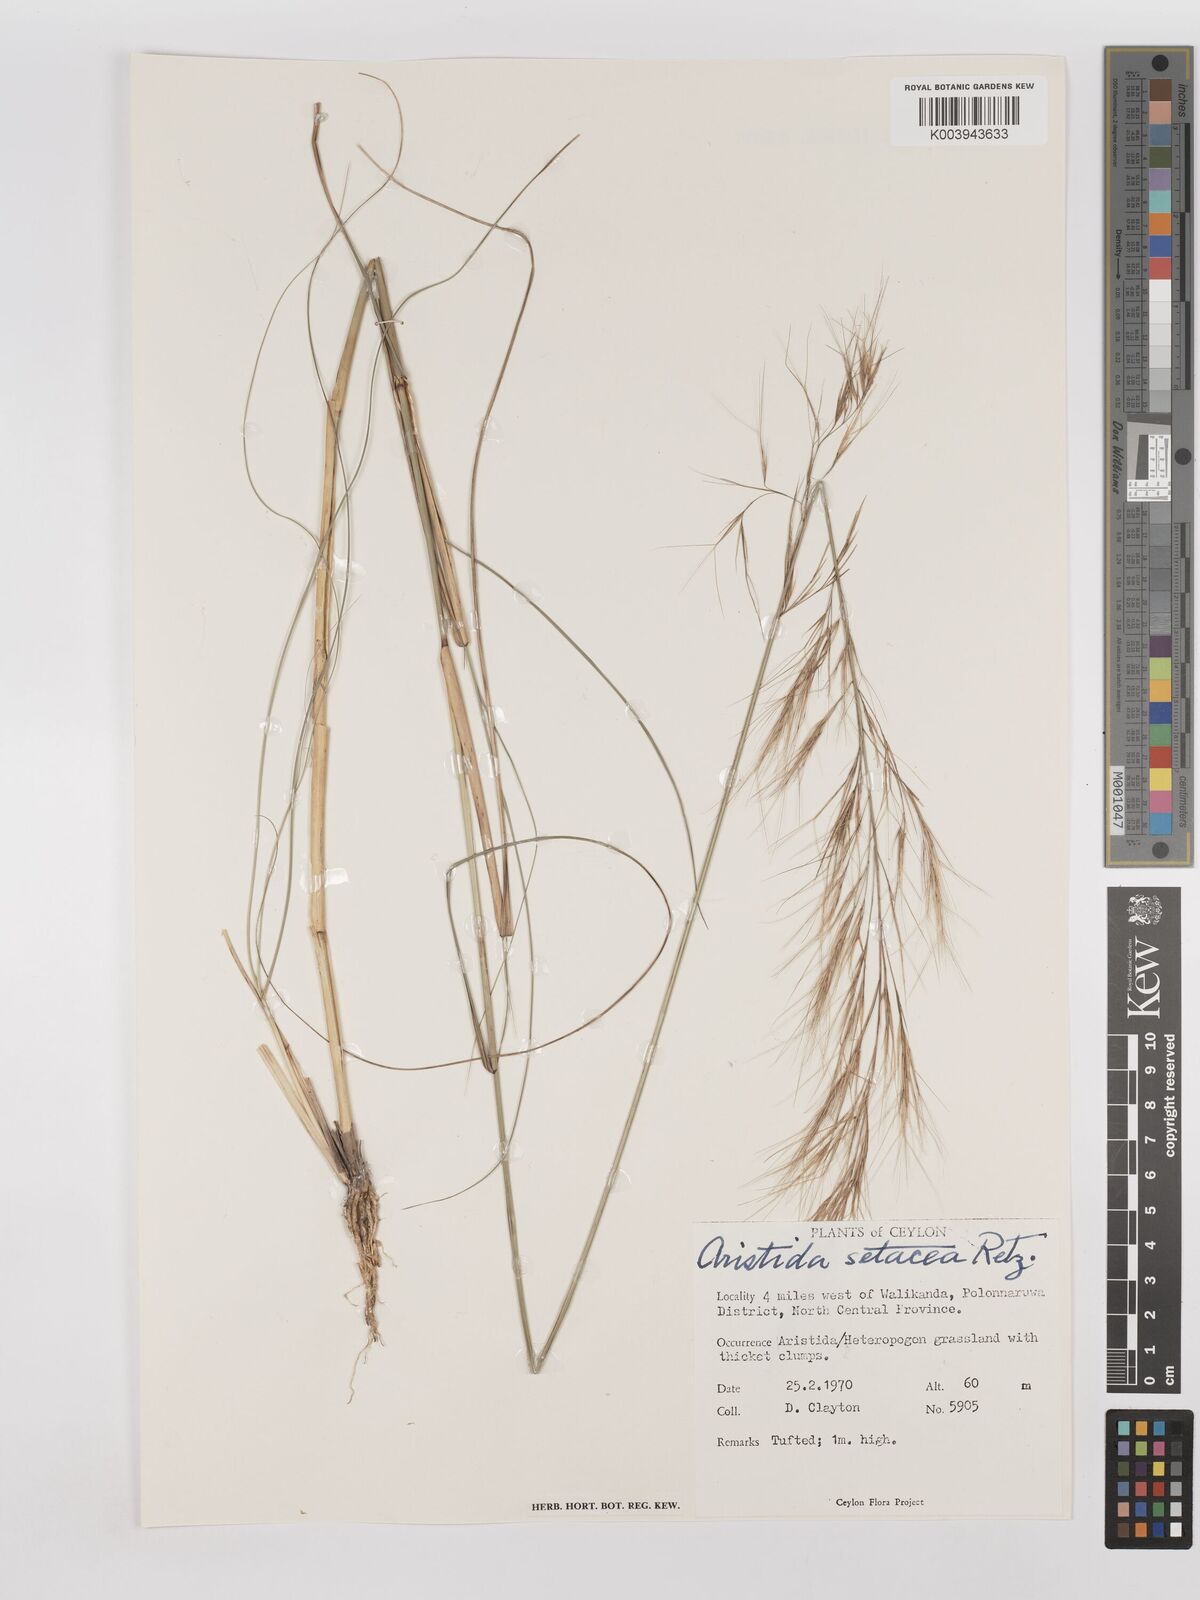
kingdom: Plantae
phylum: Tracheophyta
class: Liliopsida
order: Poales
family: Poaceae
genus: Aristida
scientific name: Aristida setacea
